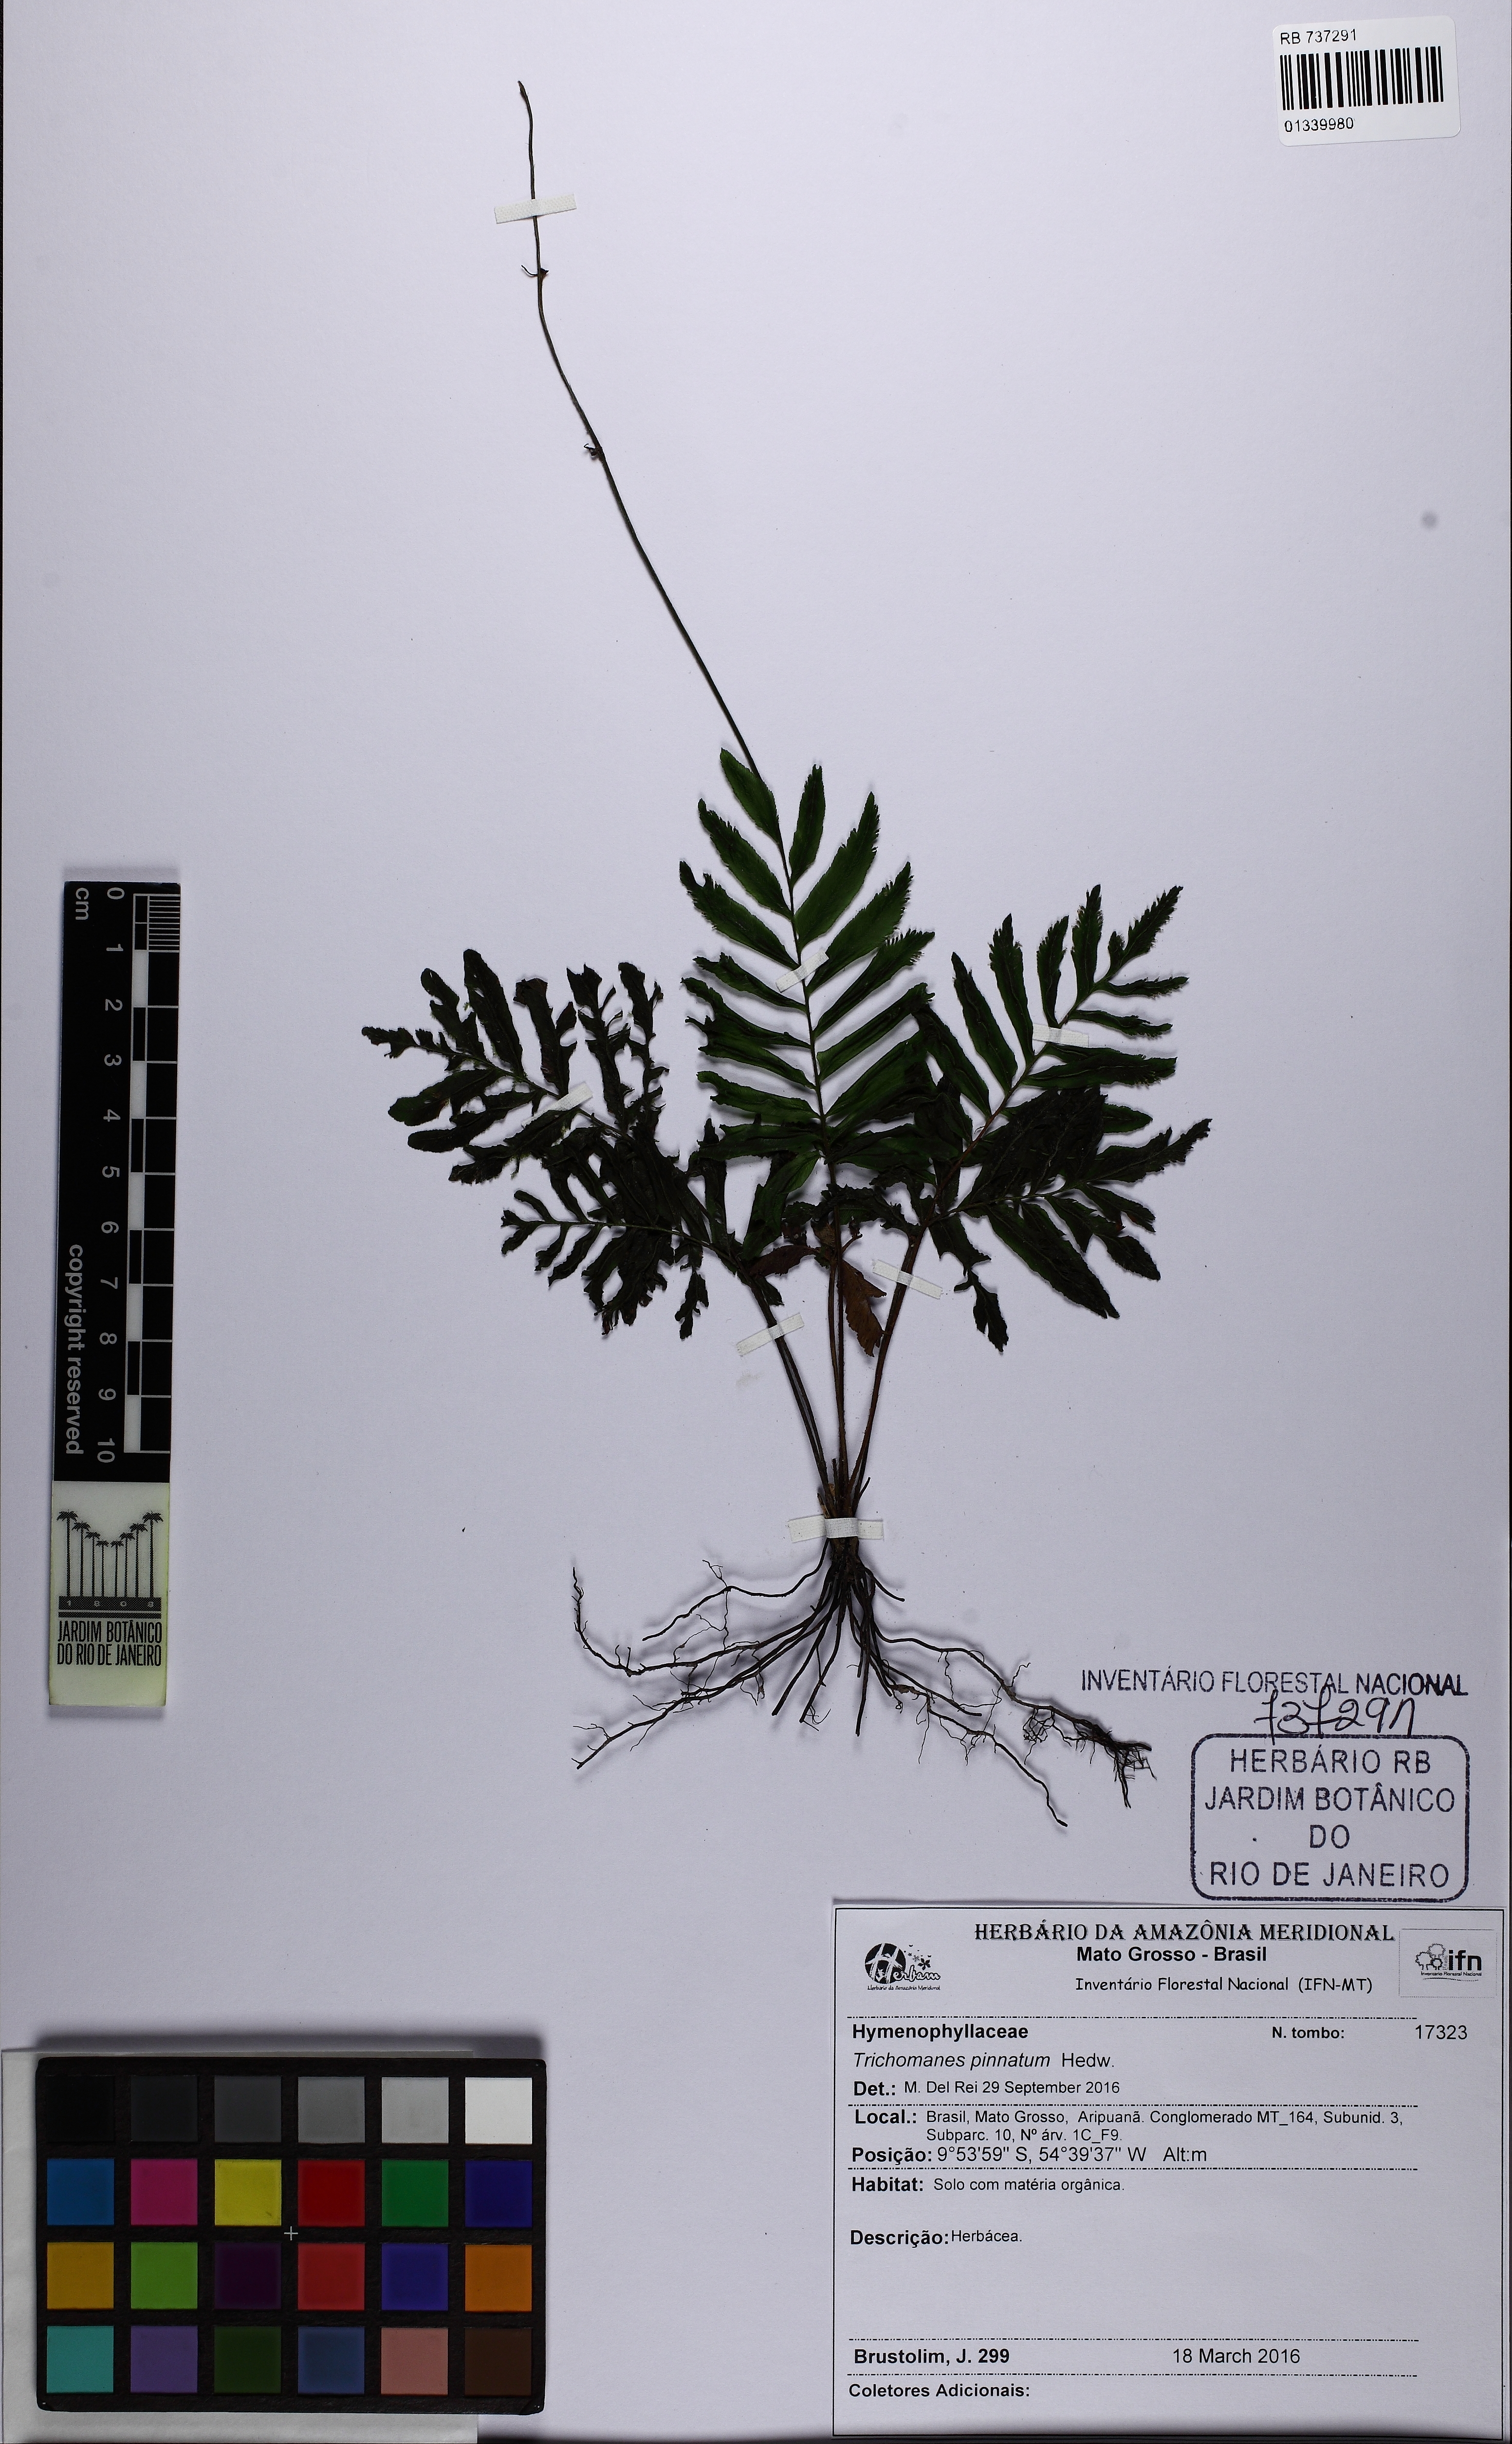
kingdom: Plantae
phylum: Tracheophyta
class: Polypodiopsida
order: Hymenophyllales
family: Hymenophyllaceae
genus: Trichomanes
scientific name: Trichomanes pinnatum
